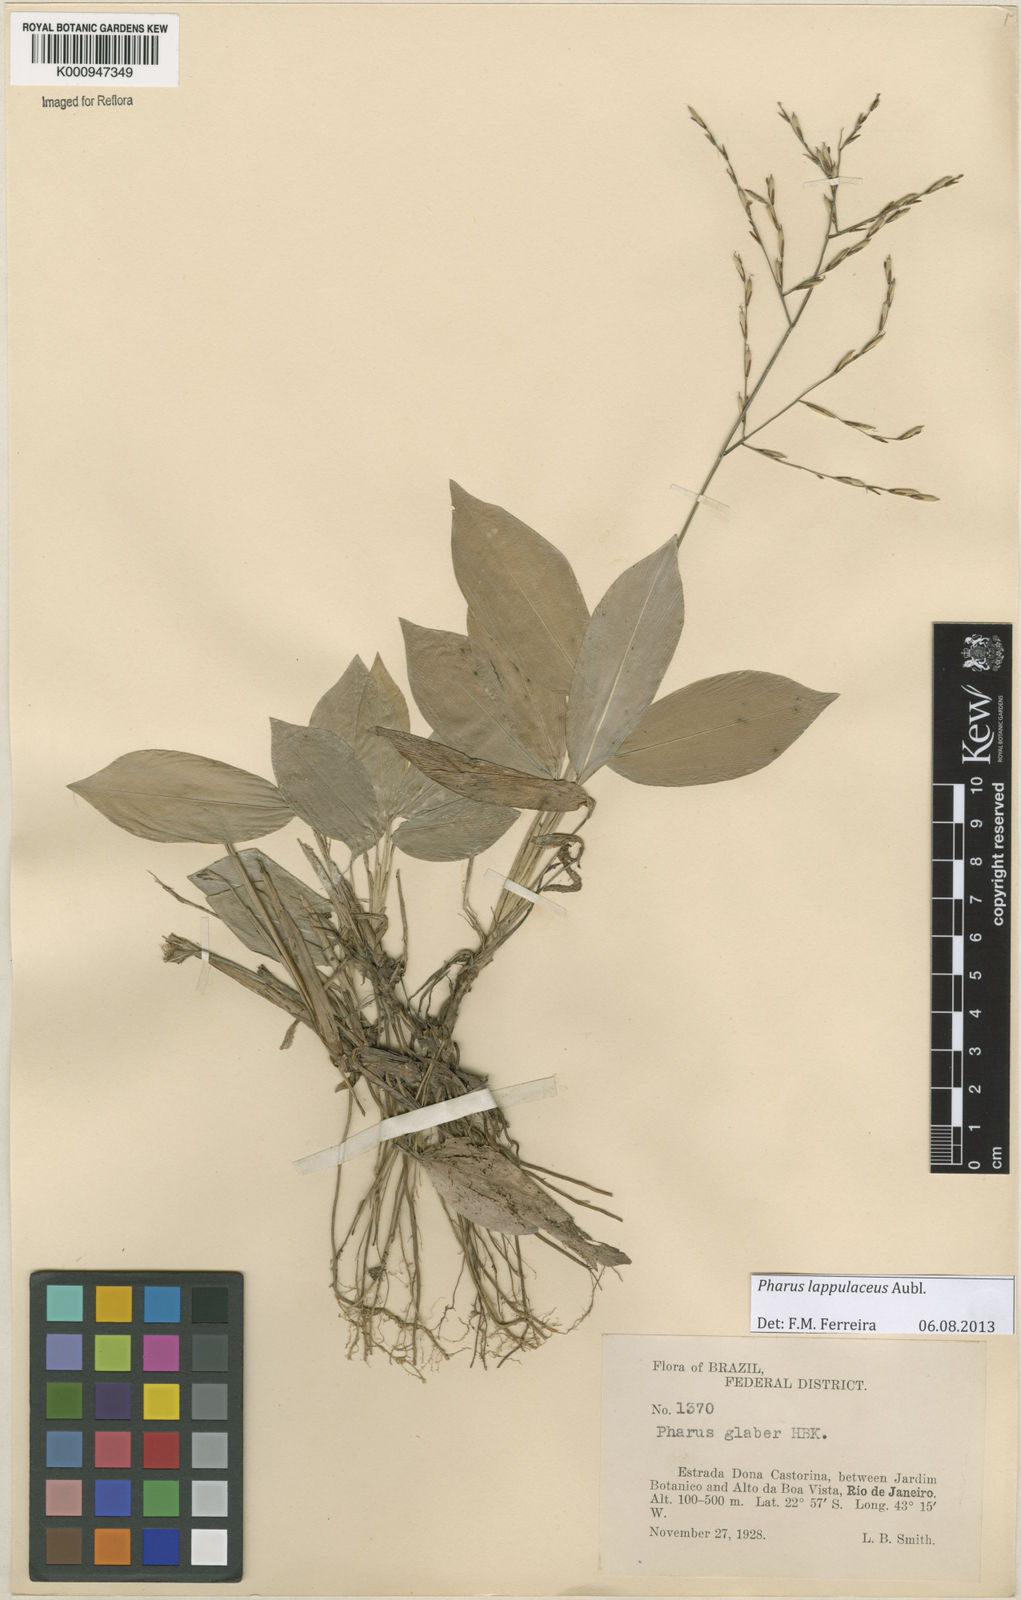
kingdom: Plantae
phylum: Tracheophyta
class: Liliopsida
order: Poales
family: Poaceae
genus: Pharus
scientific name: Pharus lappulaceus
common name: Creeping leafstalk grass
